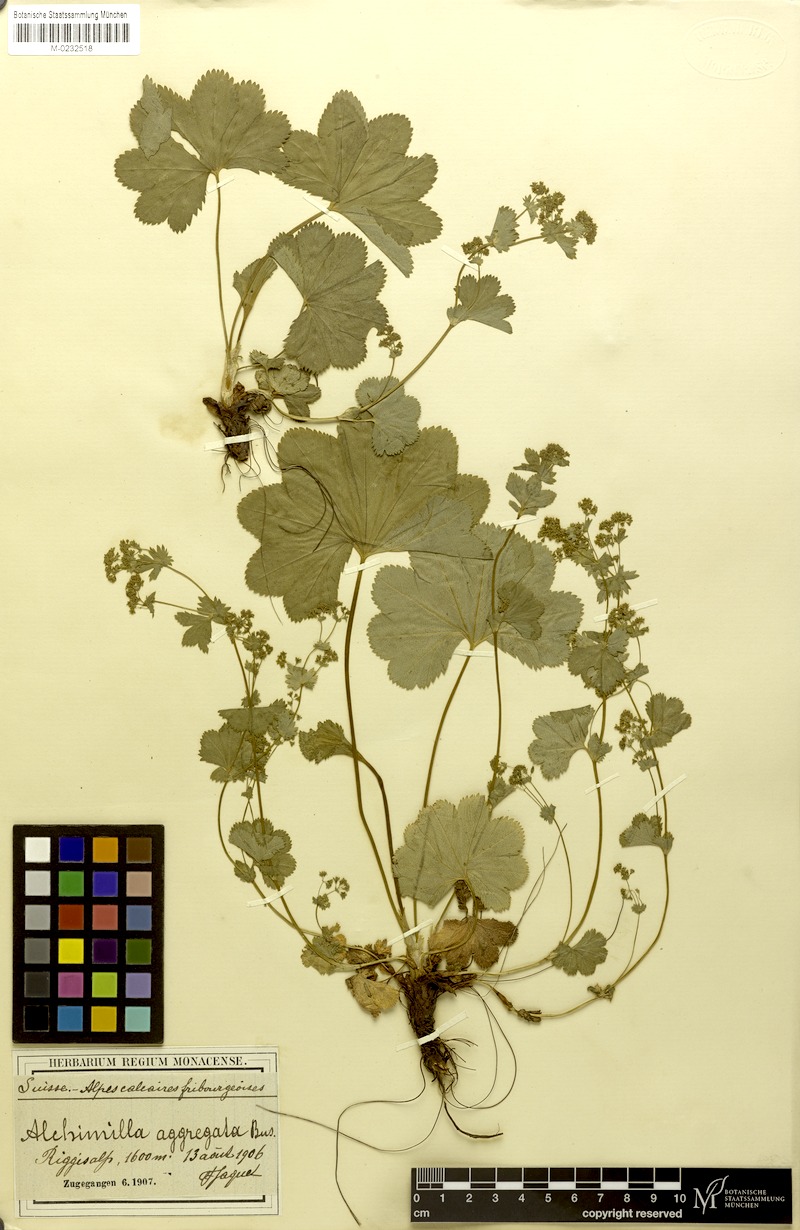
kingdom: Plantae
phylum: Tracheophyta
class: Magnoliopsida
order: Rosales
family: Rosaceae
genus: Alchemilla
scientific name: Alchemilla aggregata
